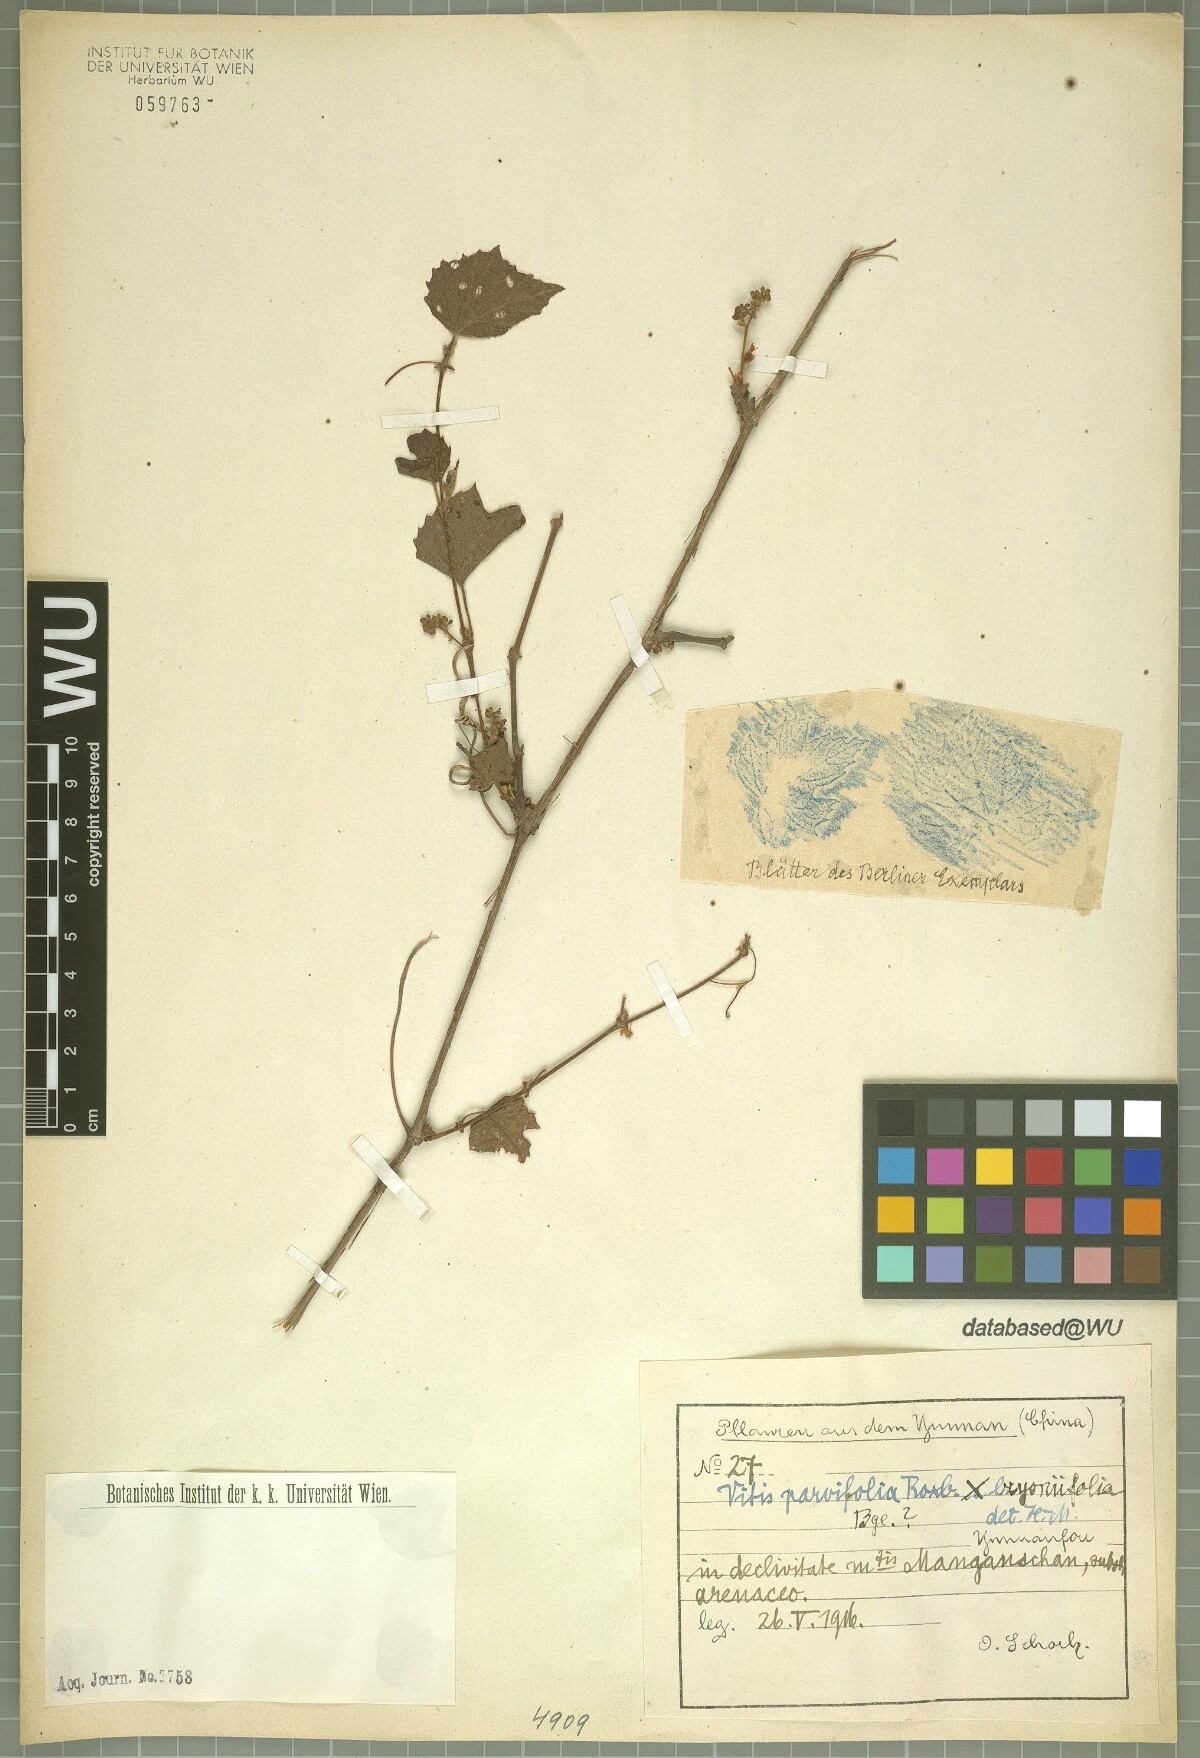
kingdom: Plantae
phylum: Tracheophyta
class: Magnoliopsida
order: Vitales
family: Vitaceae
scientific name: Vitaceae
